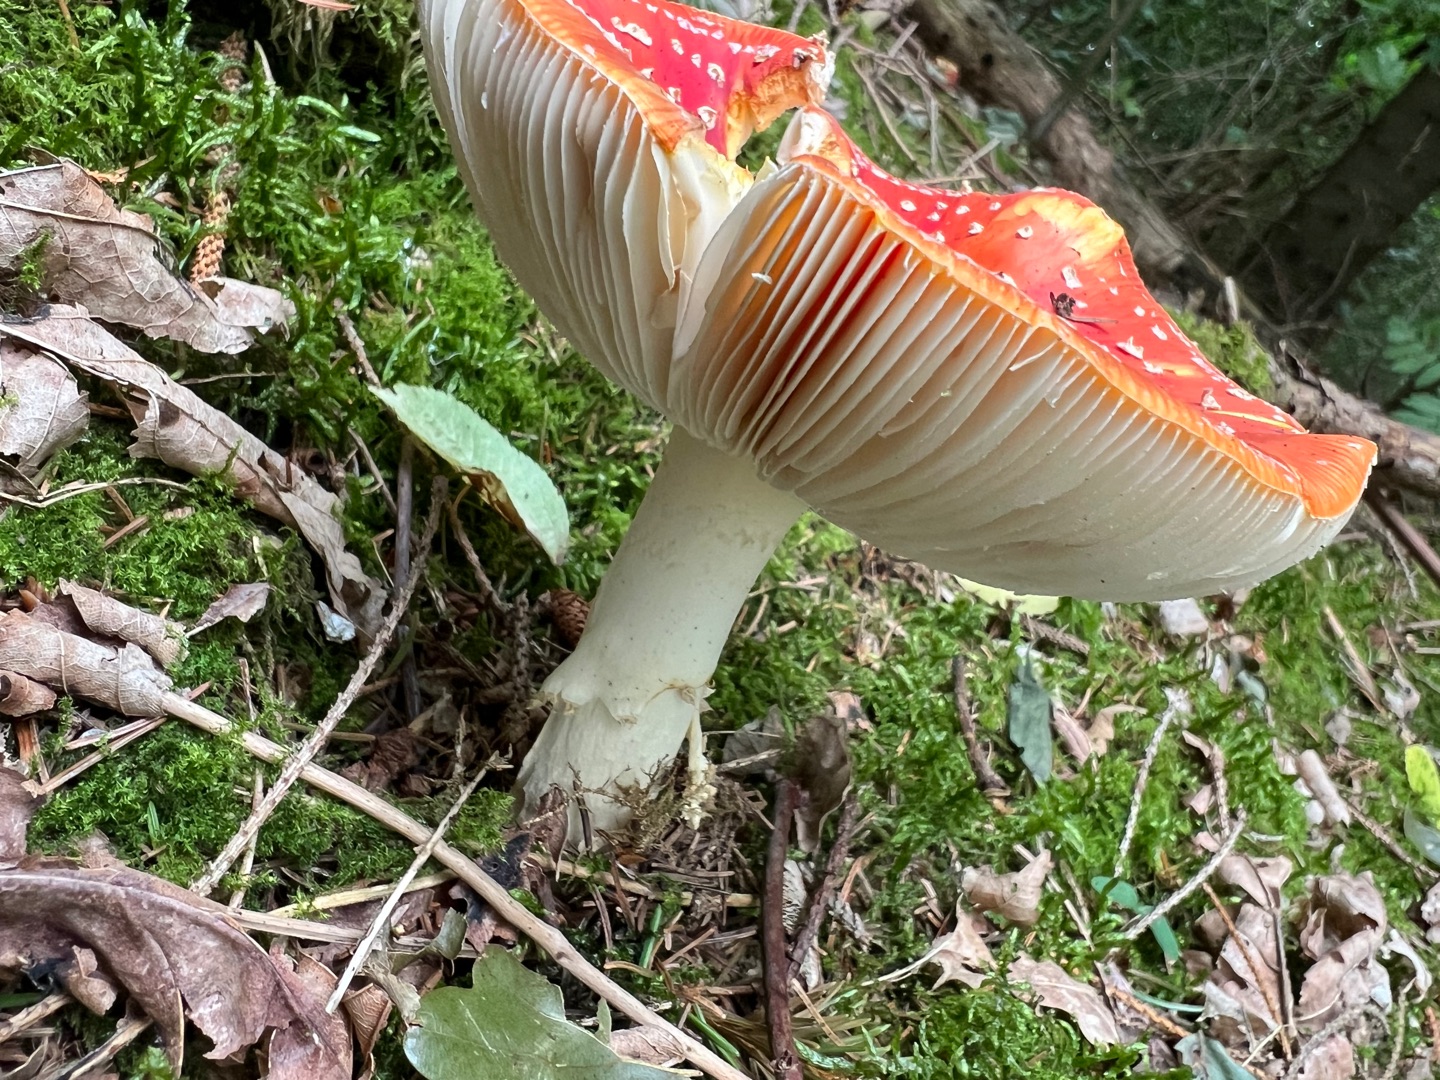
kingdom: Fungi
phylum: Basidiomycota
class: Agaricomycetes
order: Agaricales
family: Amanitaceae
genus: Amanita
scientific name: Amanita muscaria
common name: Rød fluesvamp
